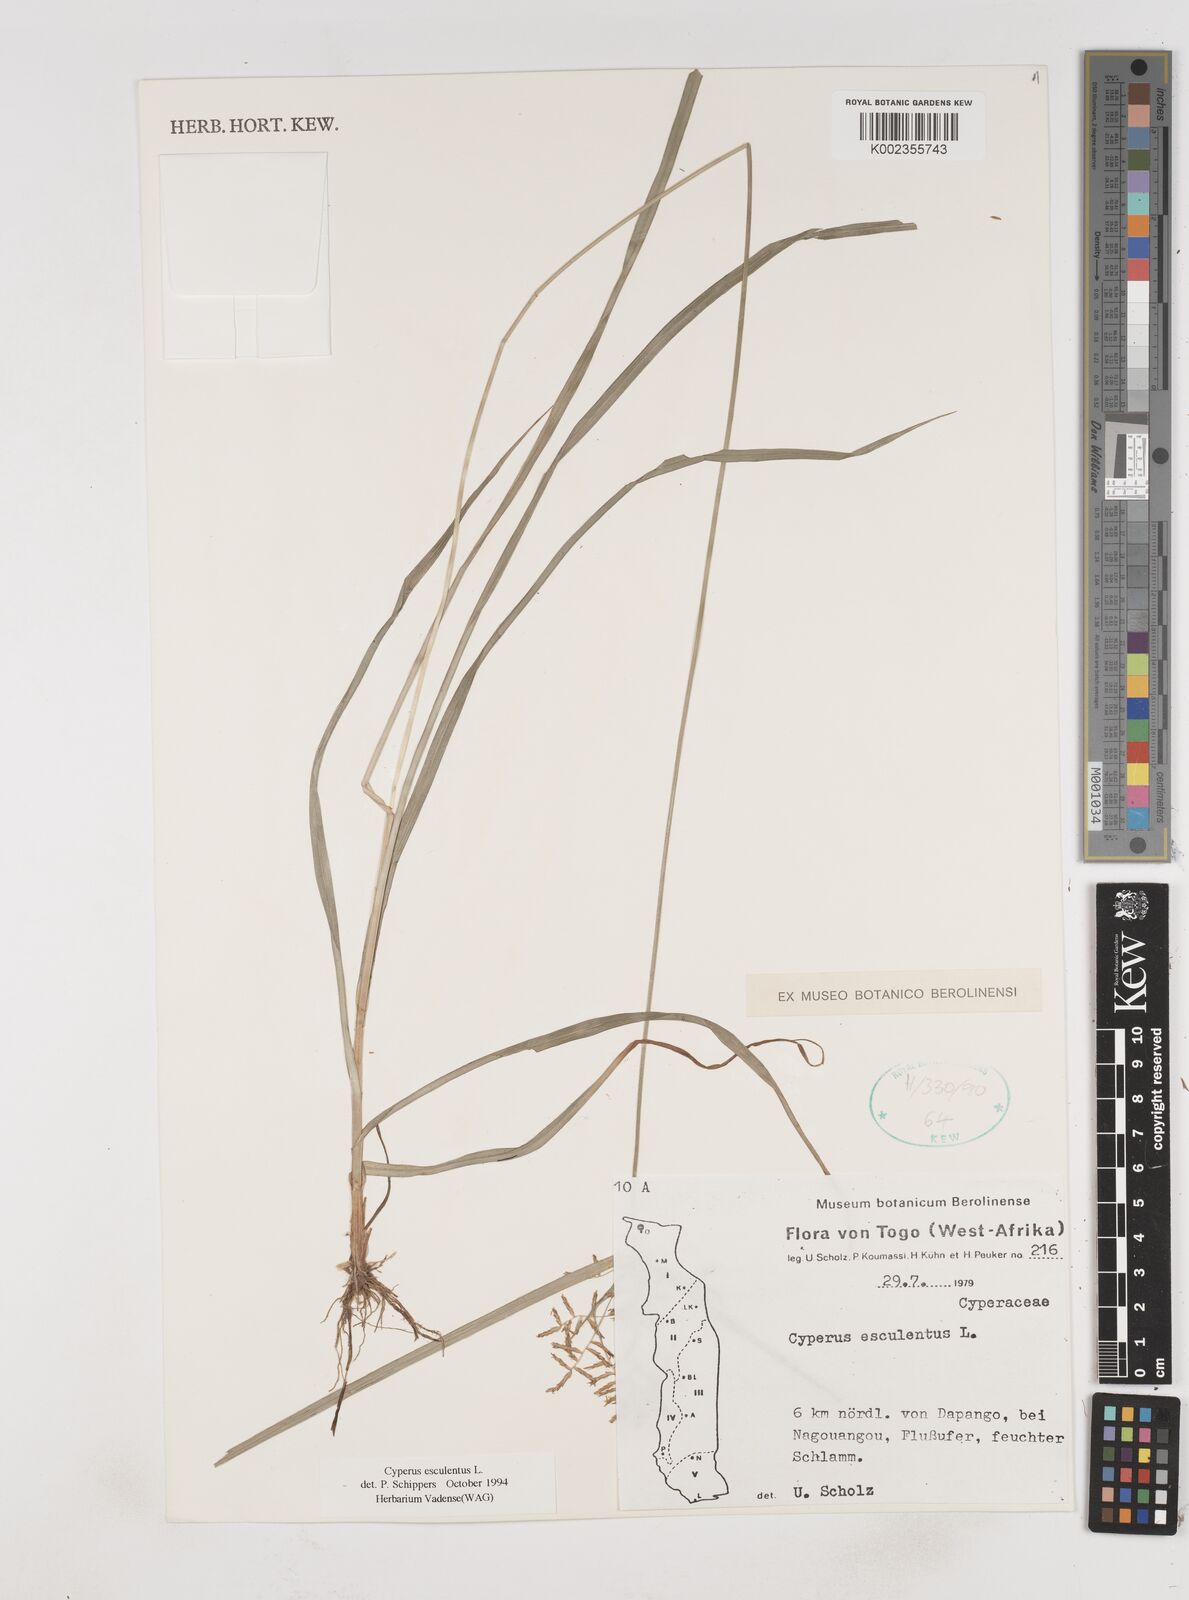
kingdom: Plantae
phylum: Tracheophyta
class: Liliopsida
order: Poales
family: Cyperaceae
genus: Cyperus
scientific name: Cyperus esculentus
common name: Yellow nutsedge
